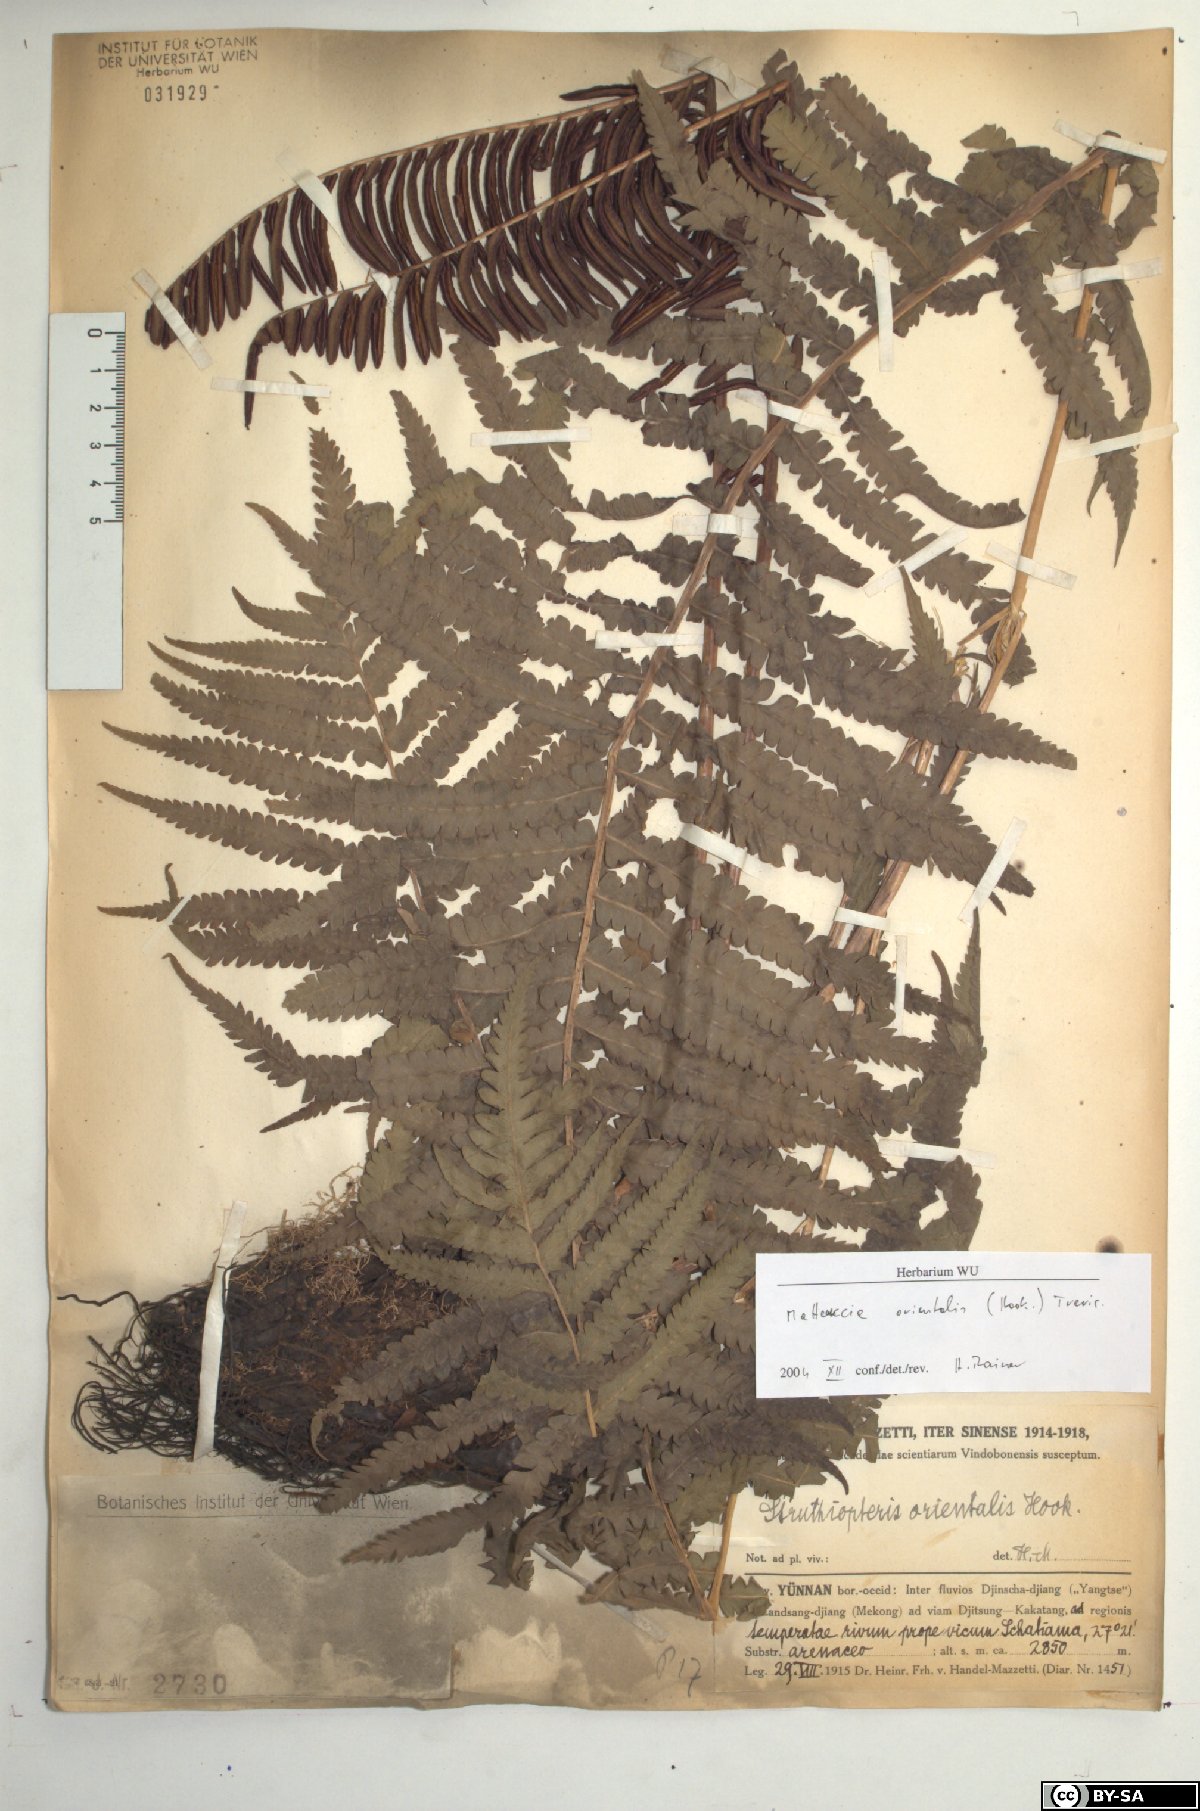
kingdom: Plantae
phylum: Tracheophyta
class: Polypodiopsida
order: Polypodiales
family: Onocleaceae
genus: Pentarhizidium
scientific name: Pentarhizidium orientale
